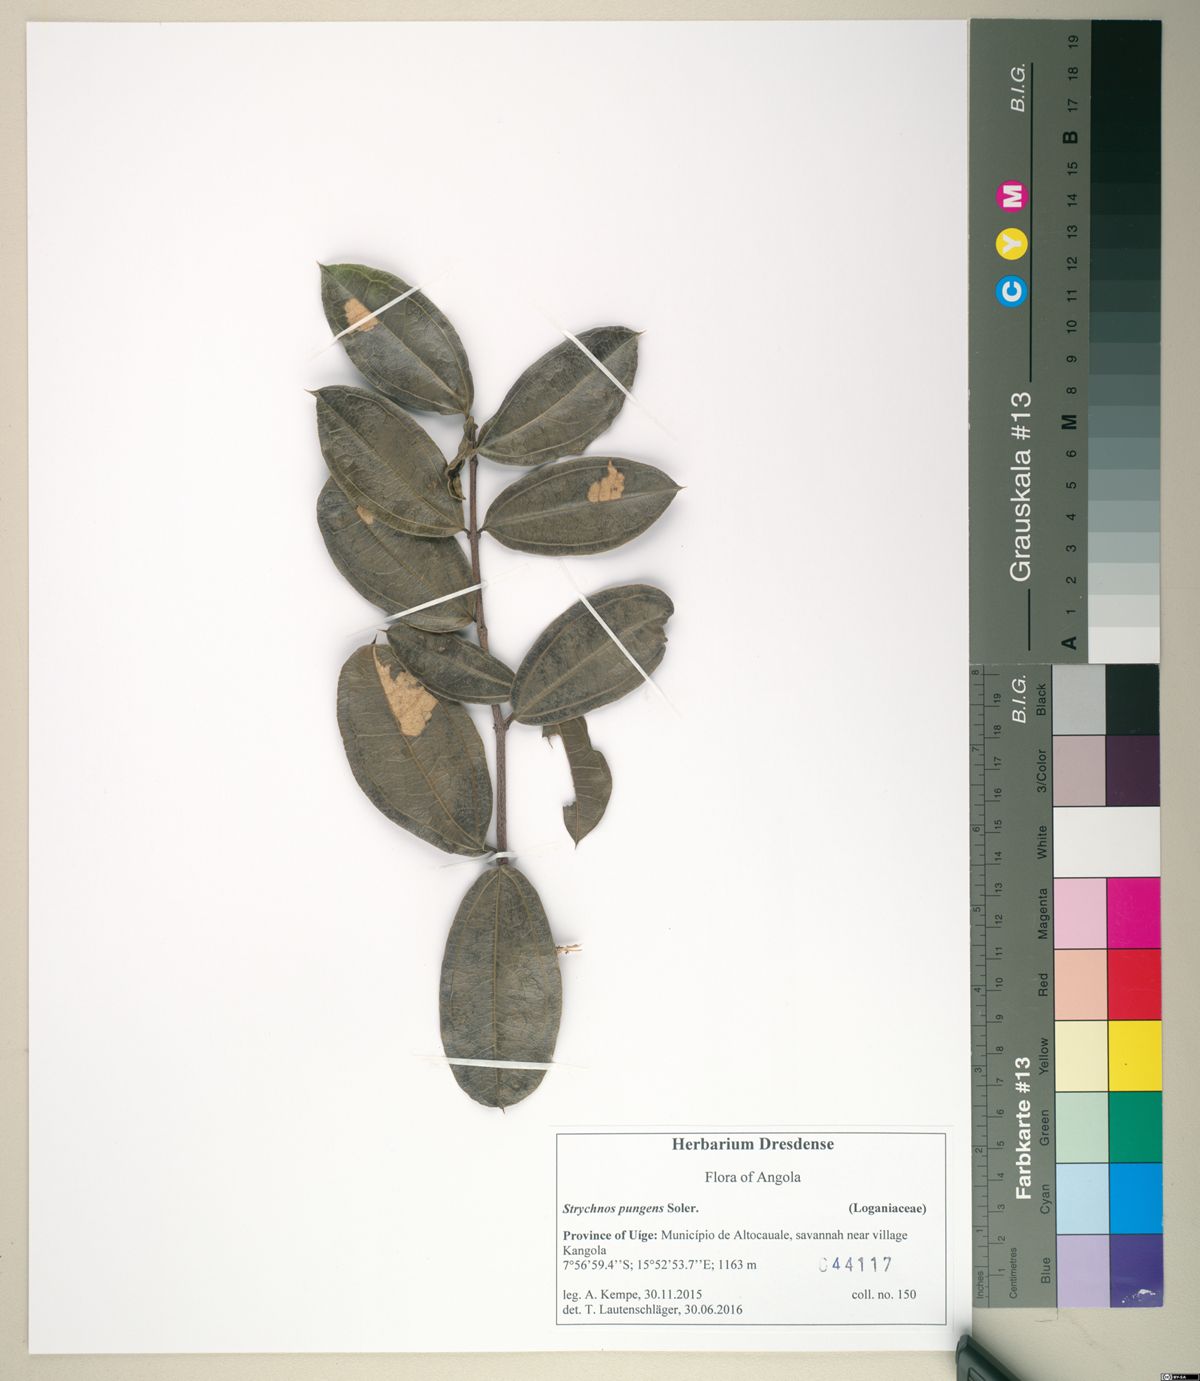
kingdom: Plantae
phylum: Tracheophyta
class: Magnoliopsida
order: Gentianales
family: Loganiaceae
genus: Strychnos
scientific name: Strychnos pungens
